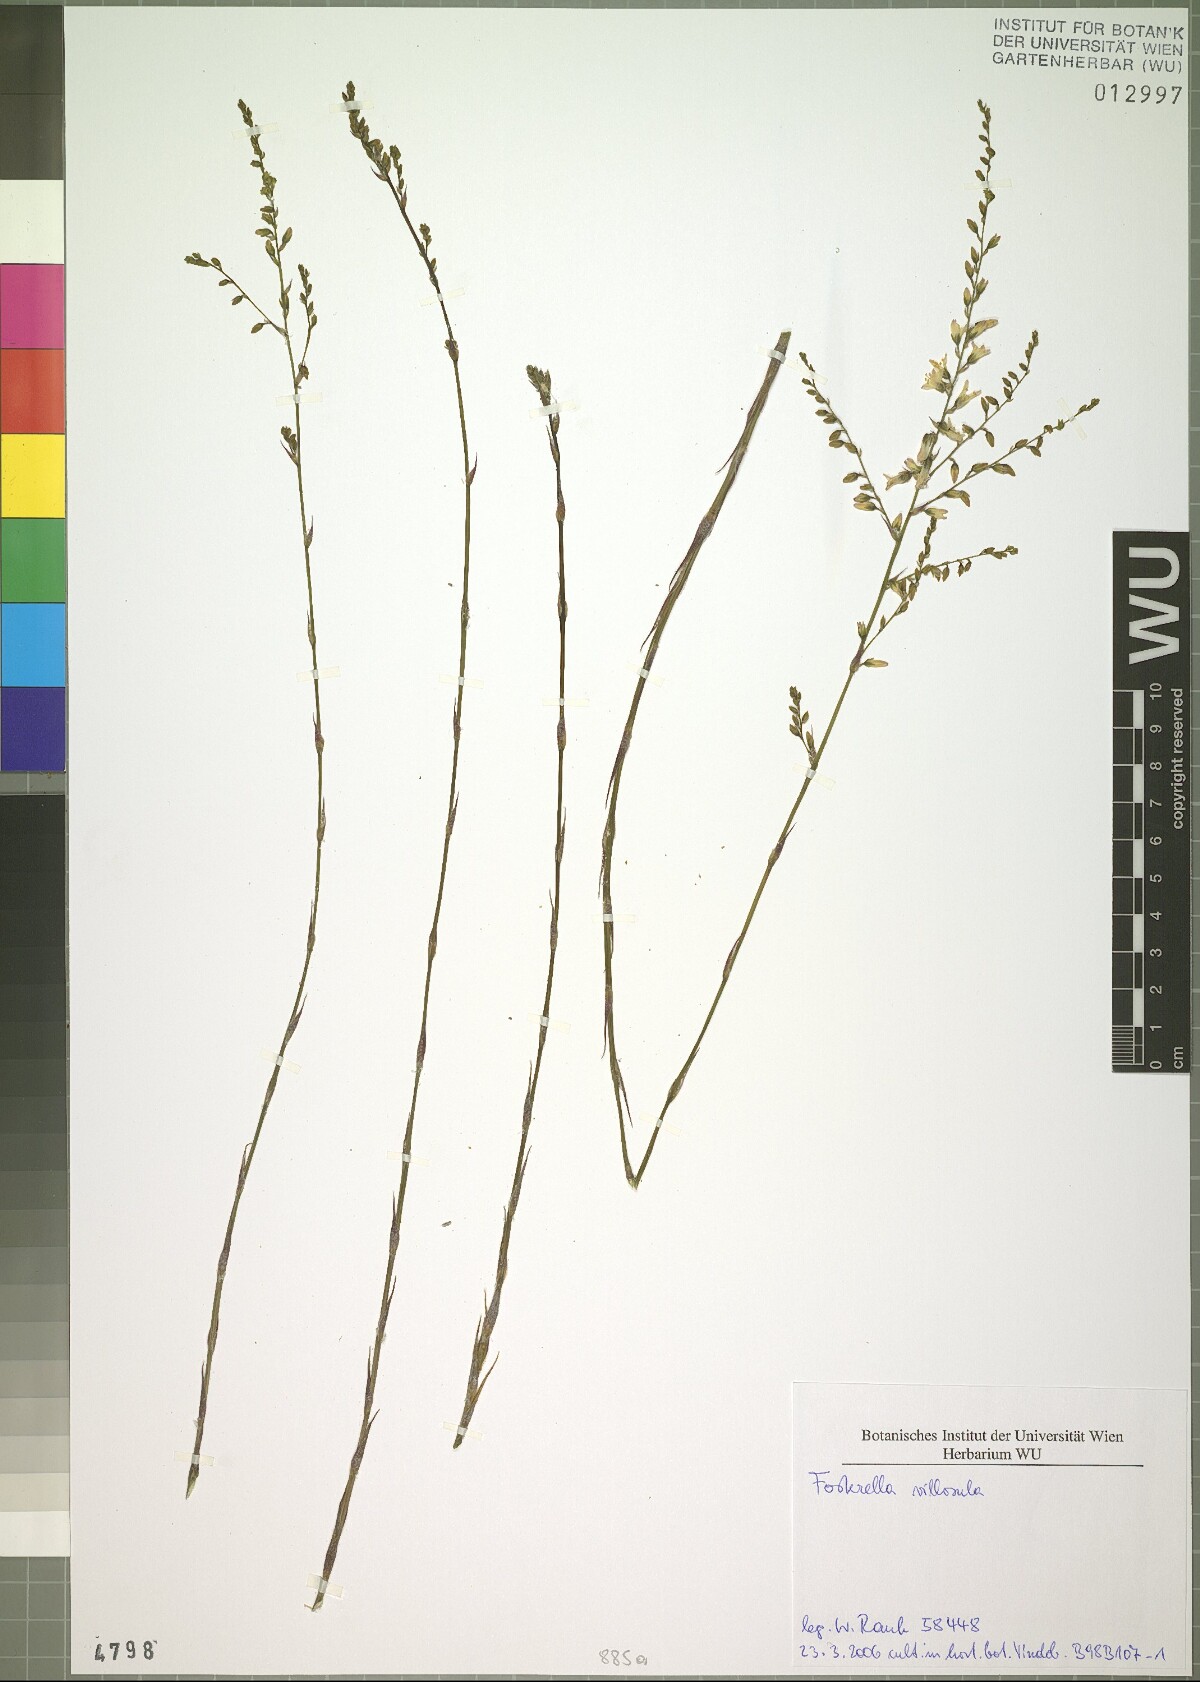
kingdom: Plantae
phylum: Tracheophyta
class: Liliopsida
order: Poales
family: Bromeliaceae
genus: Fosterella
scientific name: Fosterella villosula
